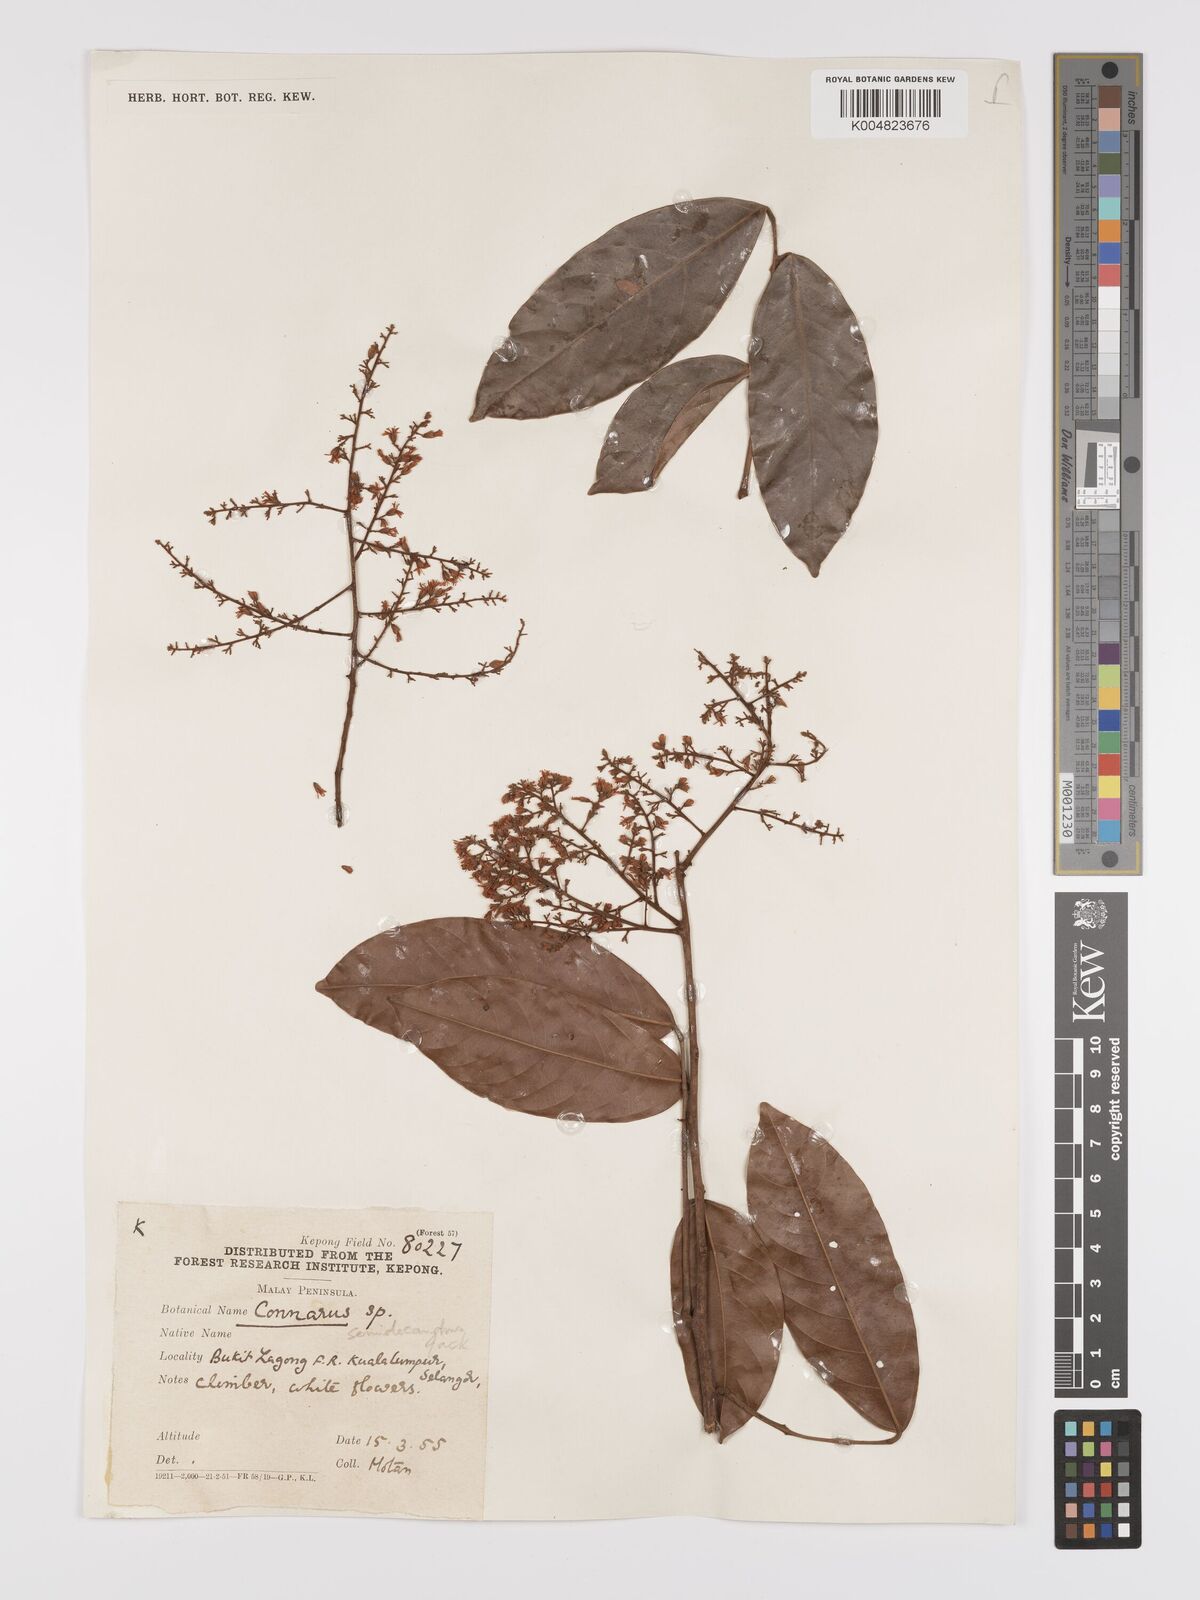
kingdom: Plantae
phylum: Tracheophyta
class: Magnoliopsida
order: Oxalidales
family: Connaraceae
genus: Connarus
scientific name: Connarus semidecandrus
